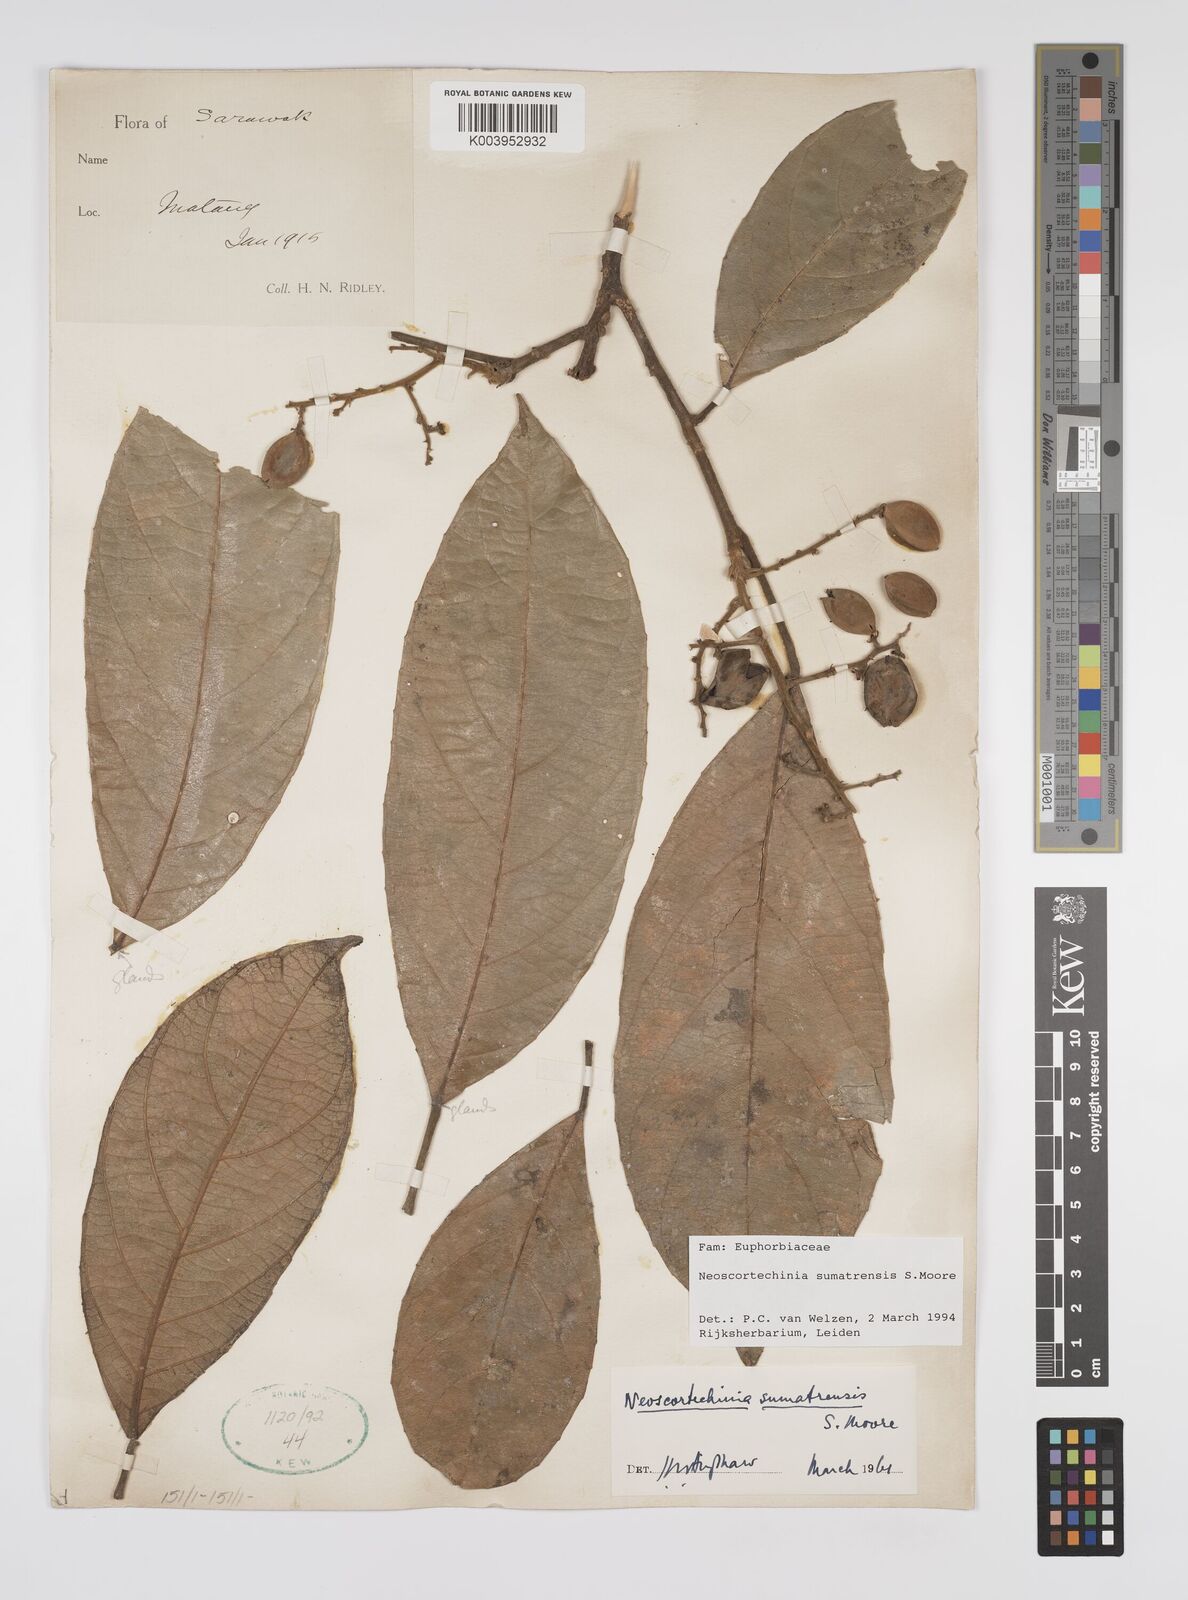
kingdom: Plantae
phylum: Tracheophyta
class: Magnoliopsida
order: Malpighiales
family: Euphorbiaceae
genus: Neoscortechinia
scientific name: Neoscortechinia sumatrensis
